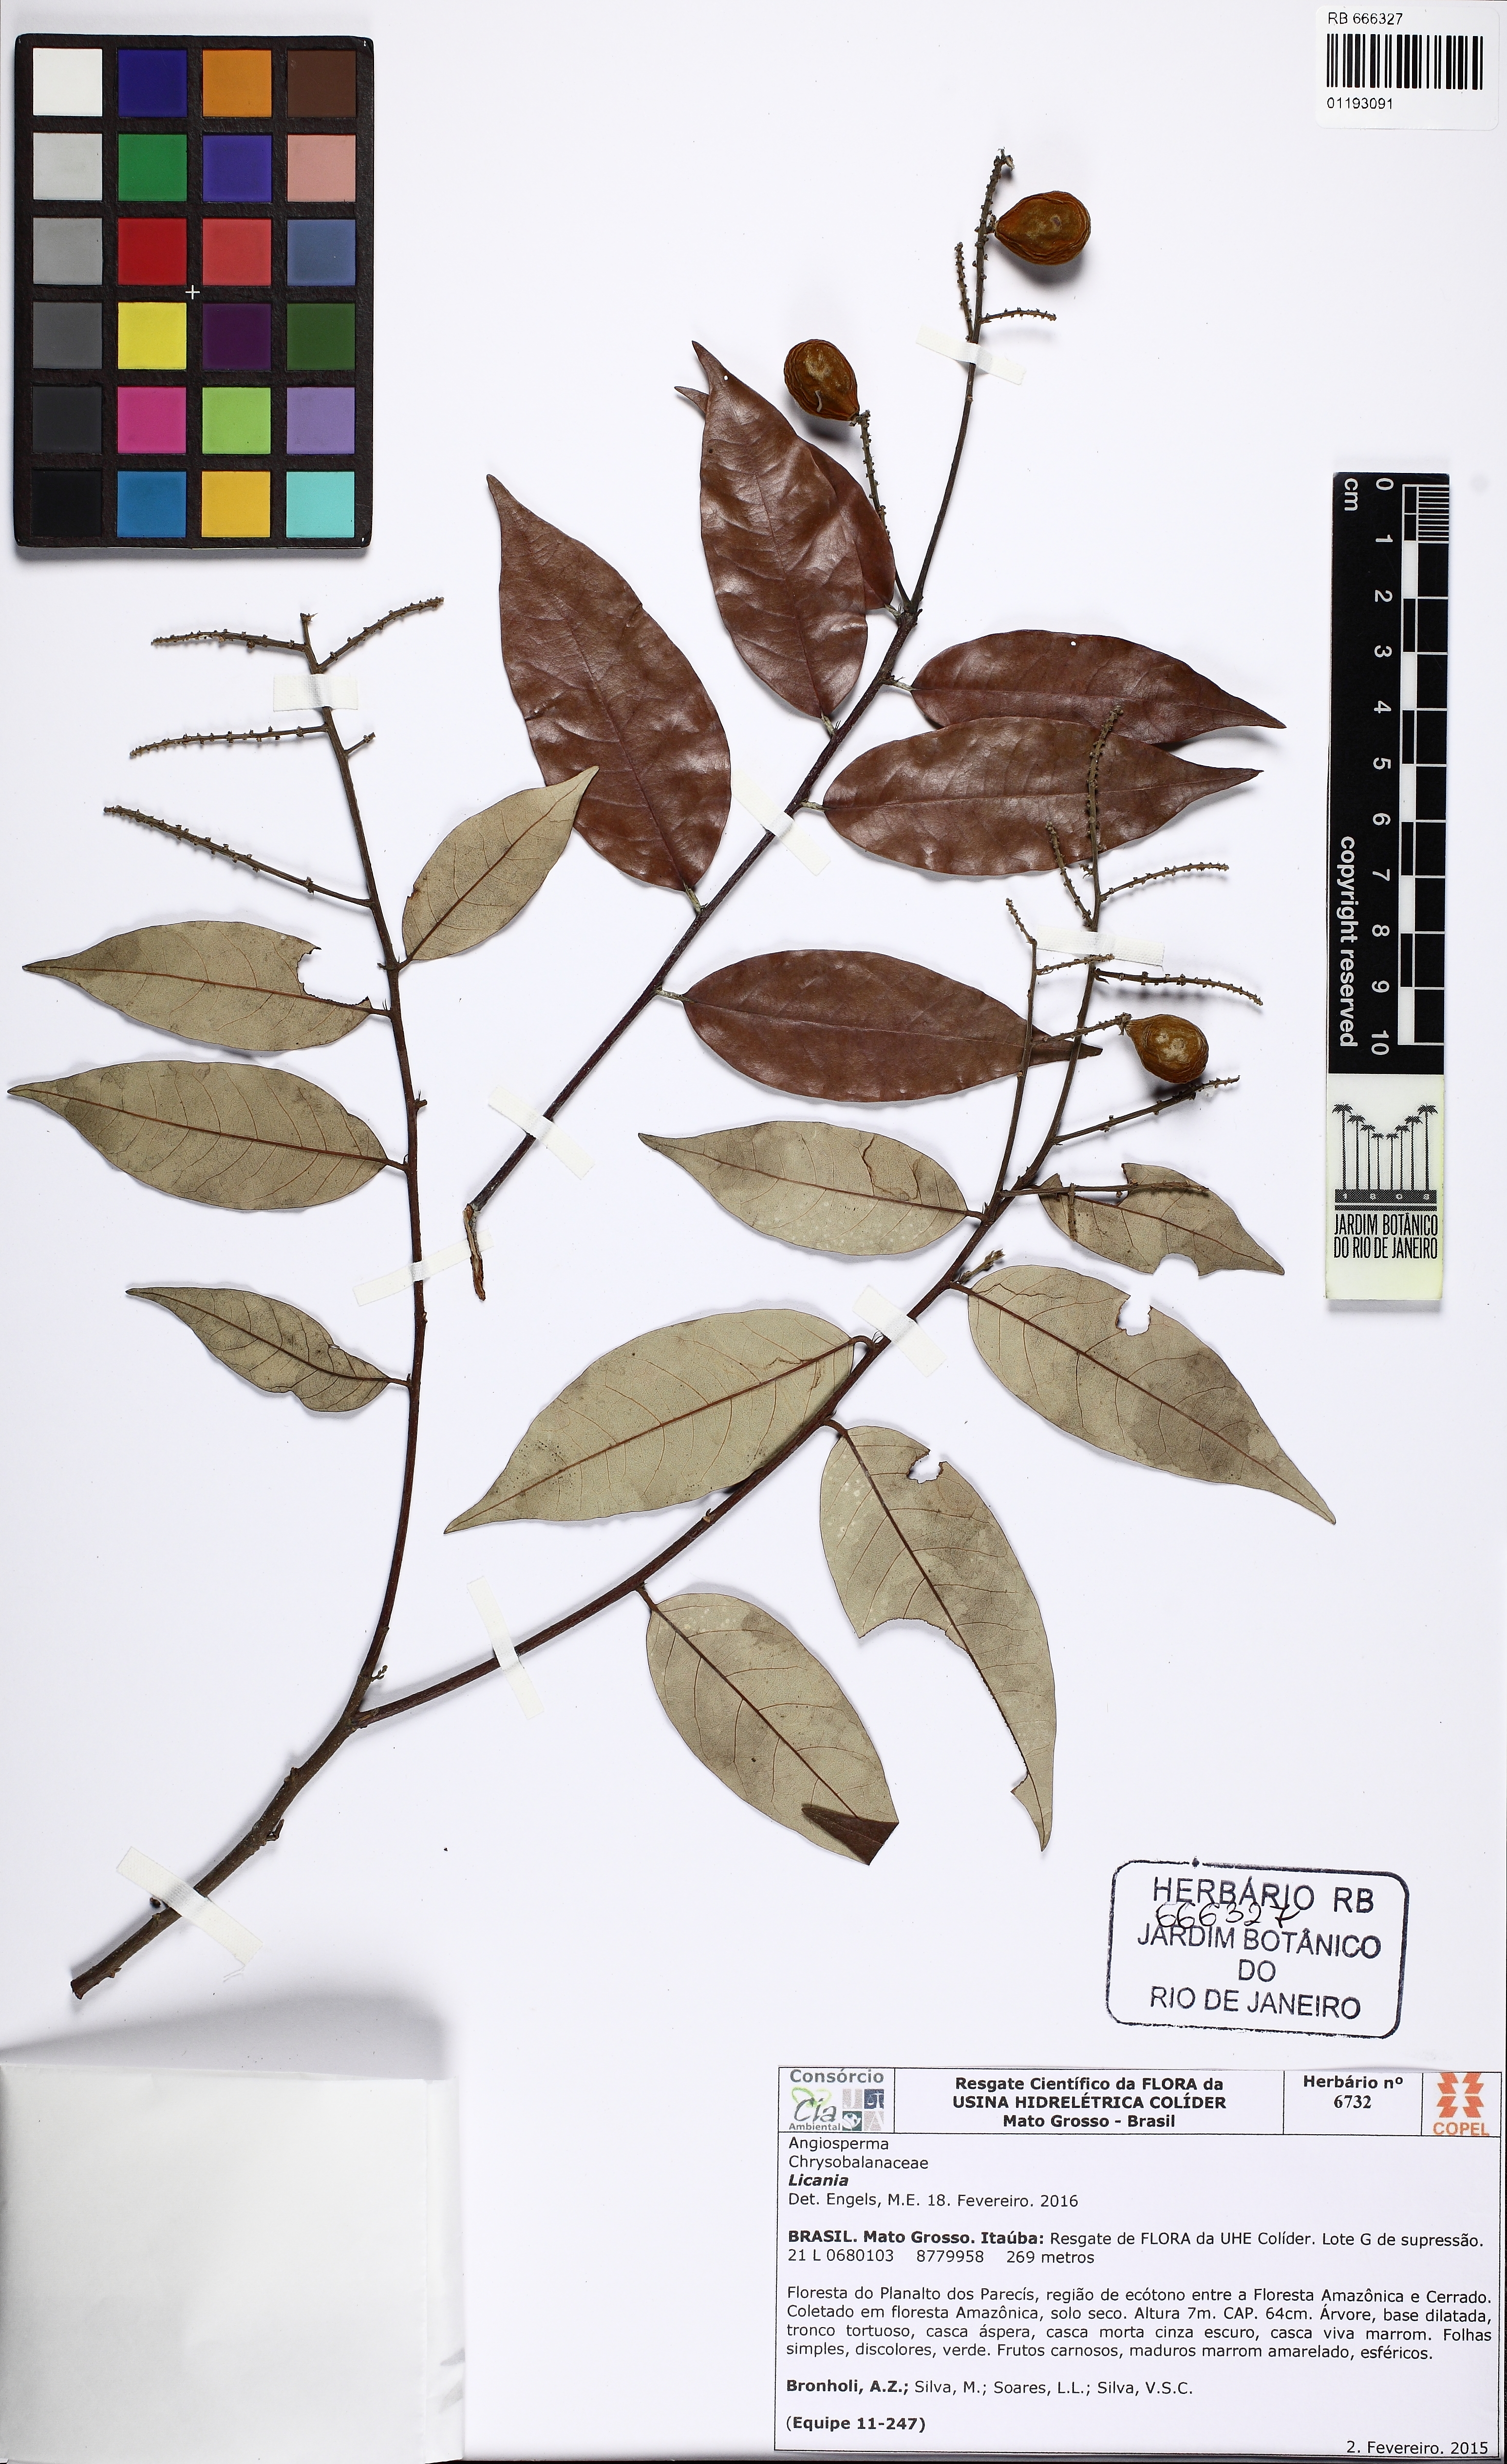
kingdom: Plantae
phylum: Tracheophyta
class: Magnoliopsida
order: Malpighiales
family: Chrysobalanaceae
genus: Licania
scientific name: Licania
